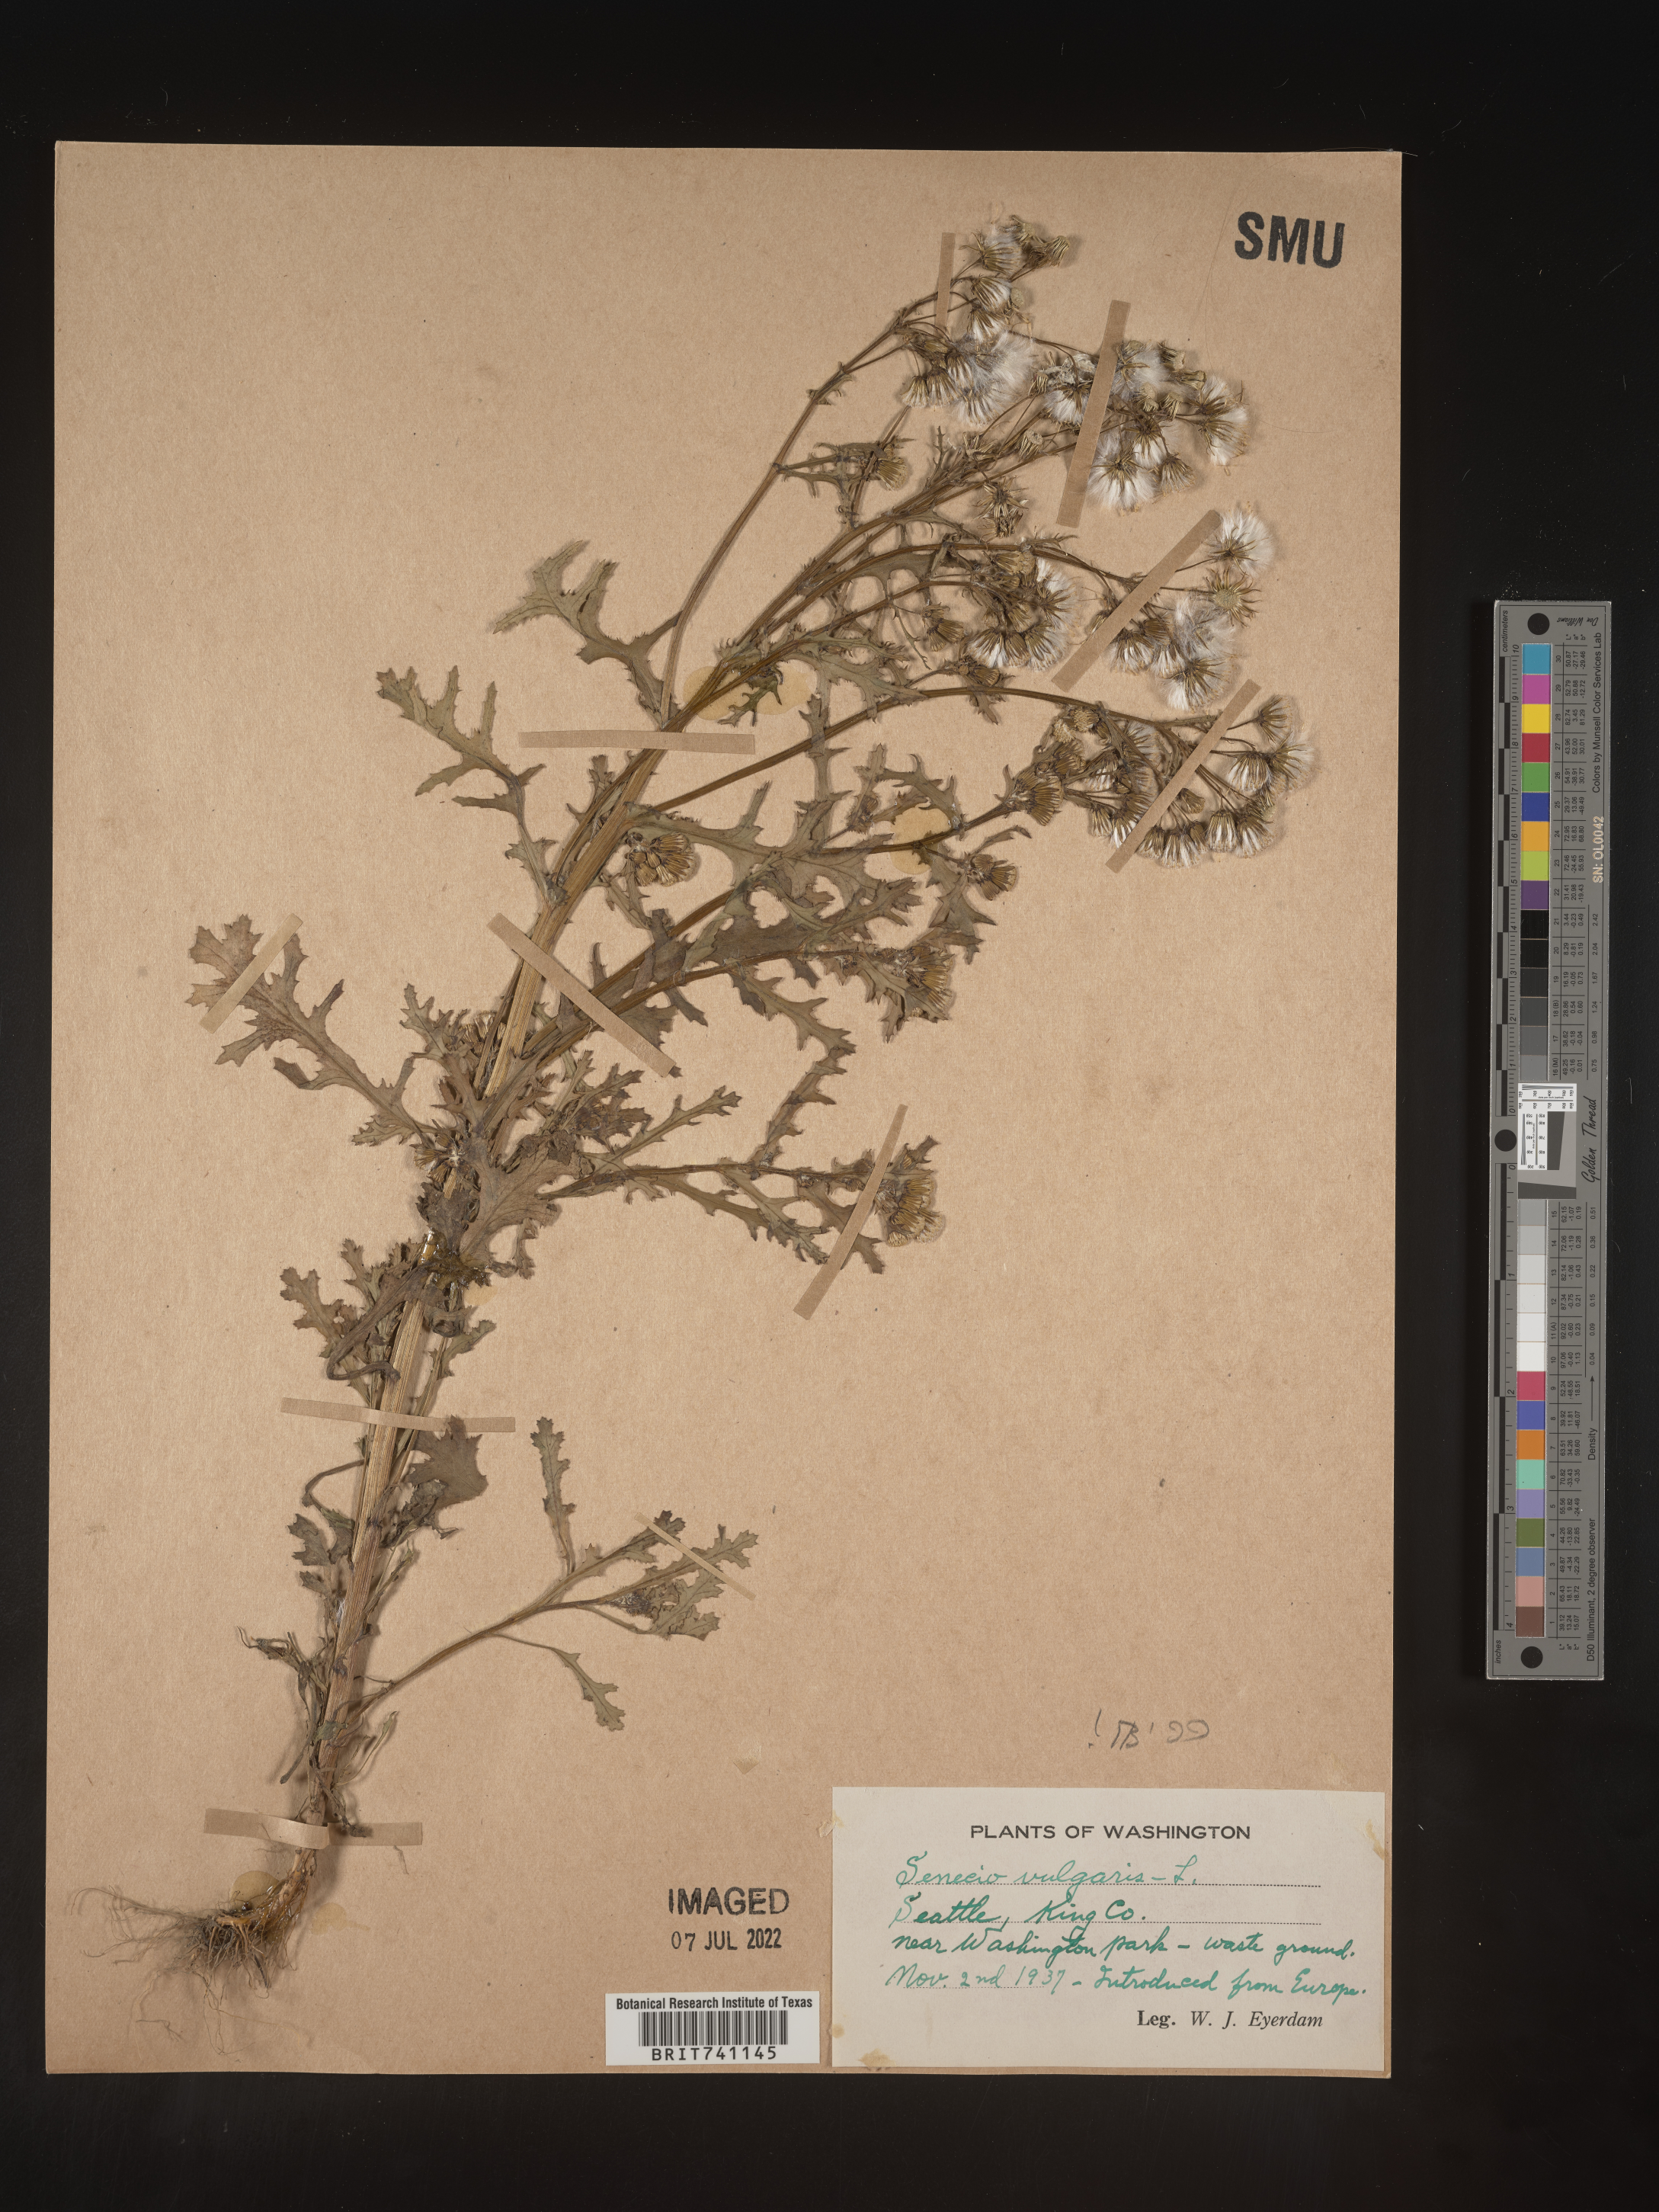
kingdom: Plantae
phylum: Tracheophyta
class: Magnoliopsida
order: Asterales
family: Asteraceae
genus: Senecio
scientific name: Senecio vulgaris
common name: Old-man-in-the-spring
